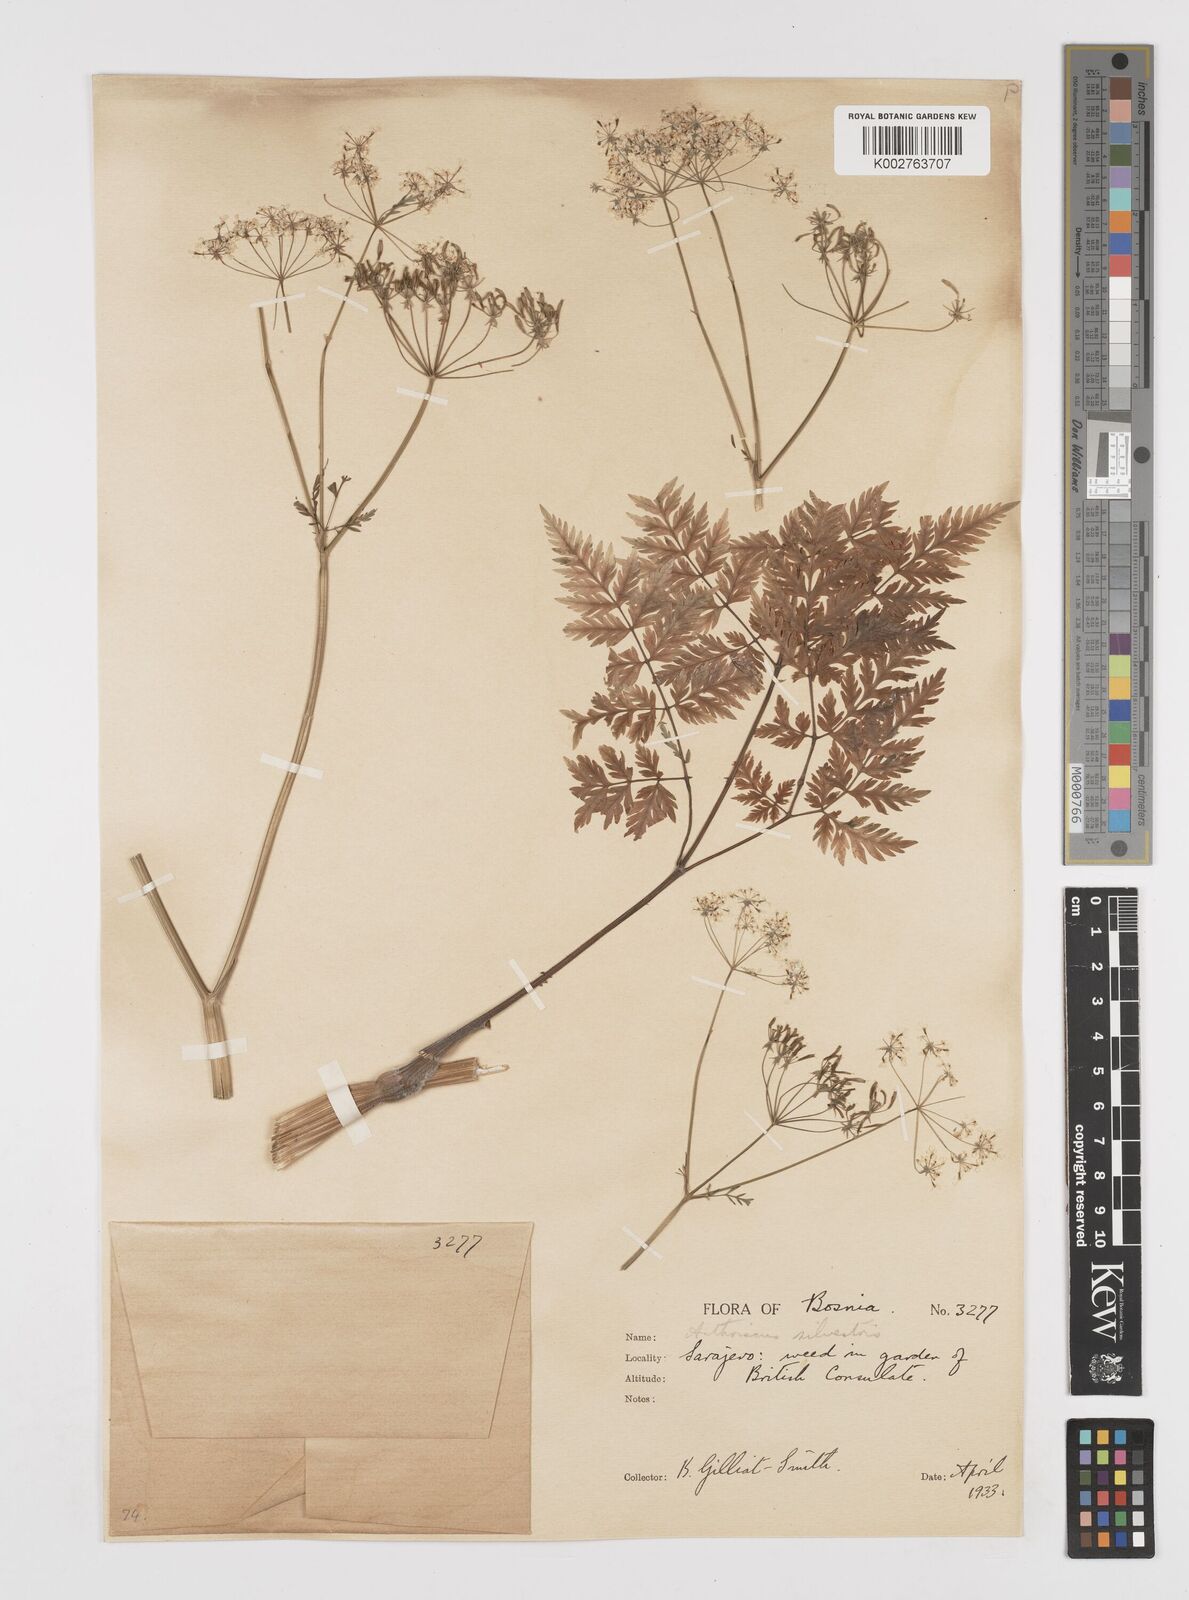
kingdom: Plantae
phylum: Tracheophyta
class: Magnoliopsida
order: Apiales
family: Apiaceae
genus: Anthriscus
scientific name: Anthriscus sylvestris
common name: Cow parsley
